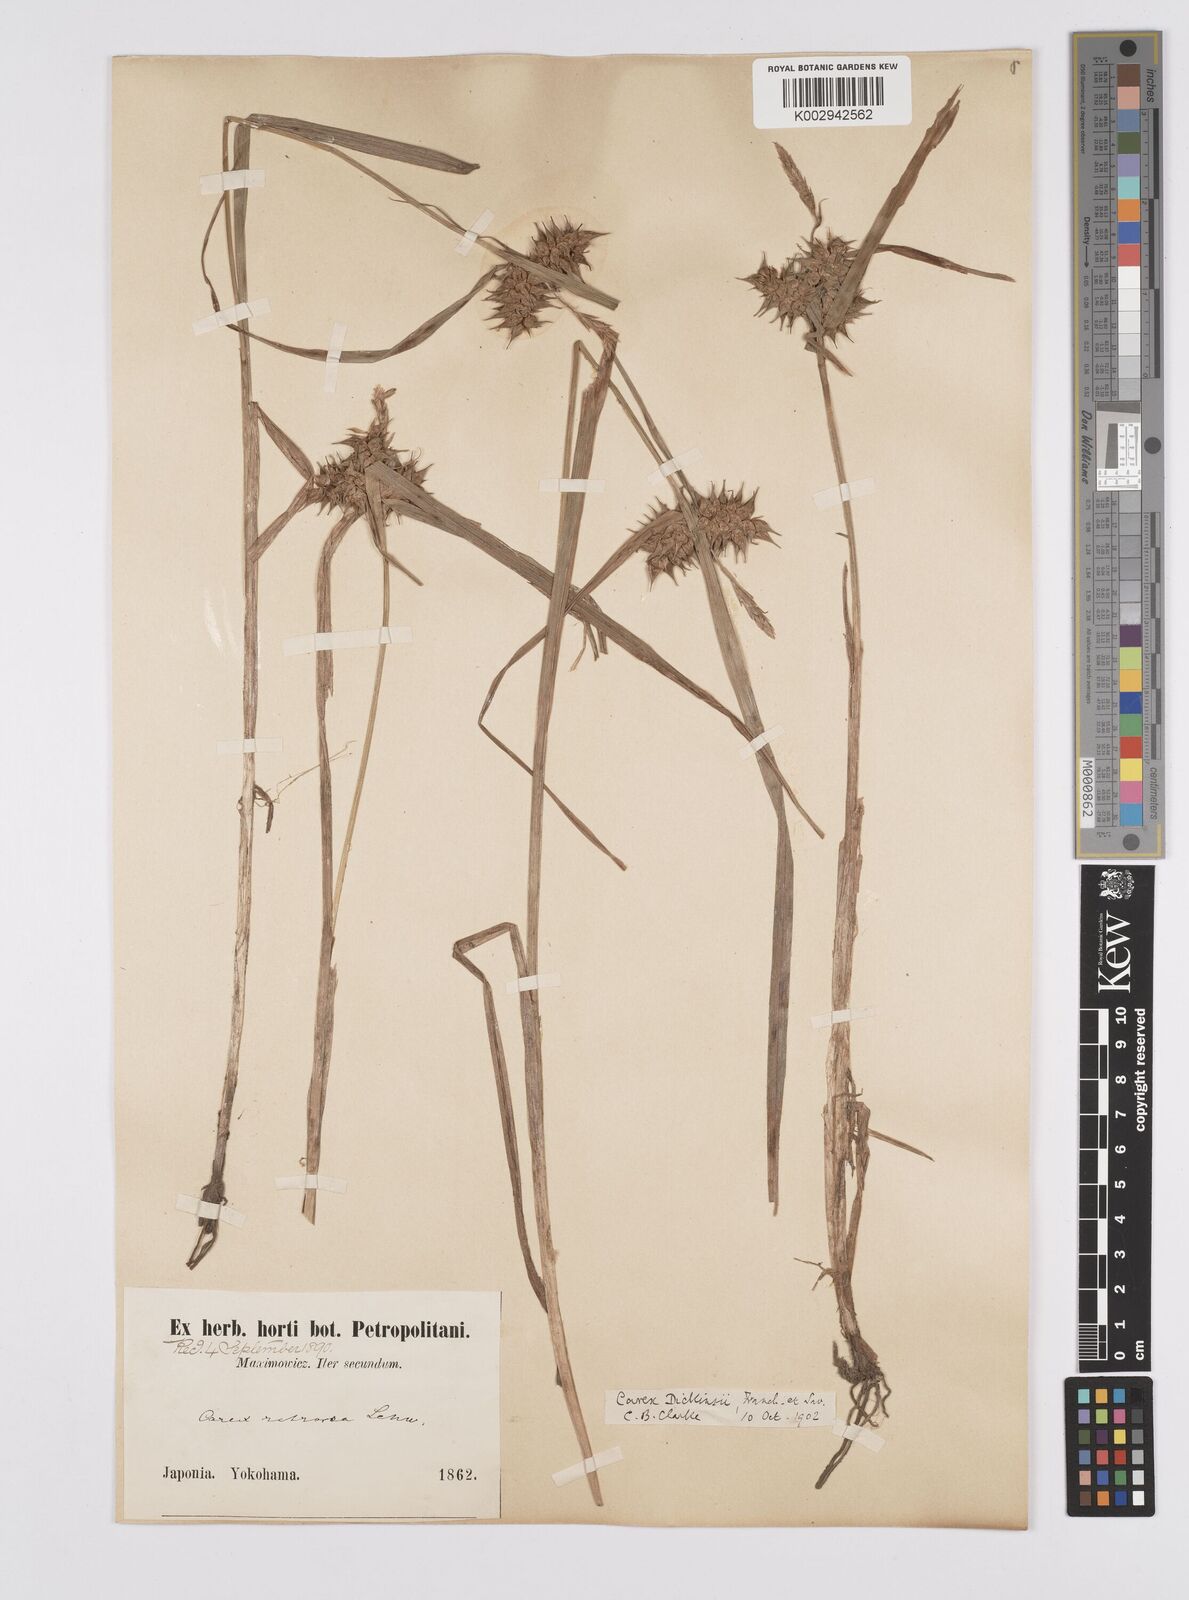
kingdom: Plantae
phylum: Tracheophyta
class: Liliopsida
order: Poales
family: Cyperaceae
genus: Carex
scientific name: Carex dickinsii
